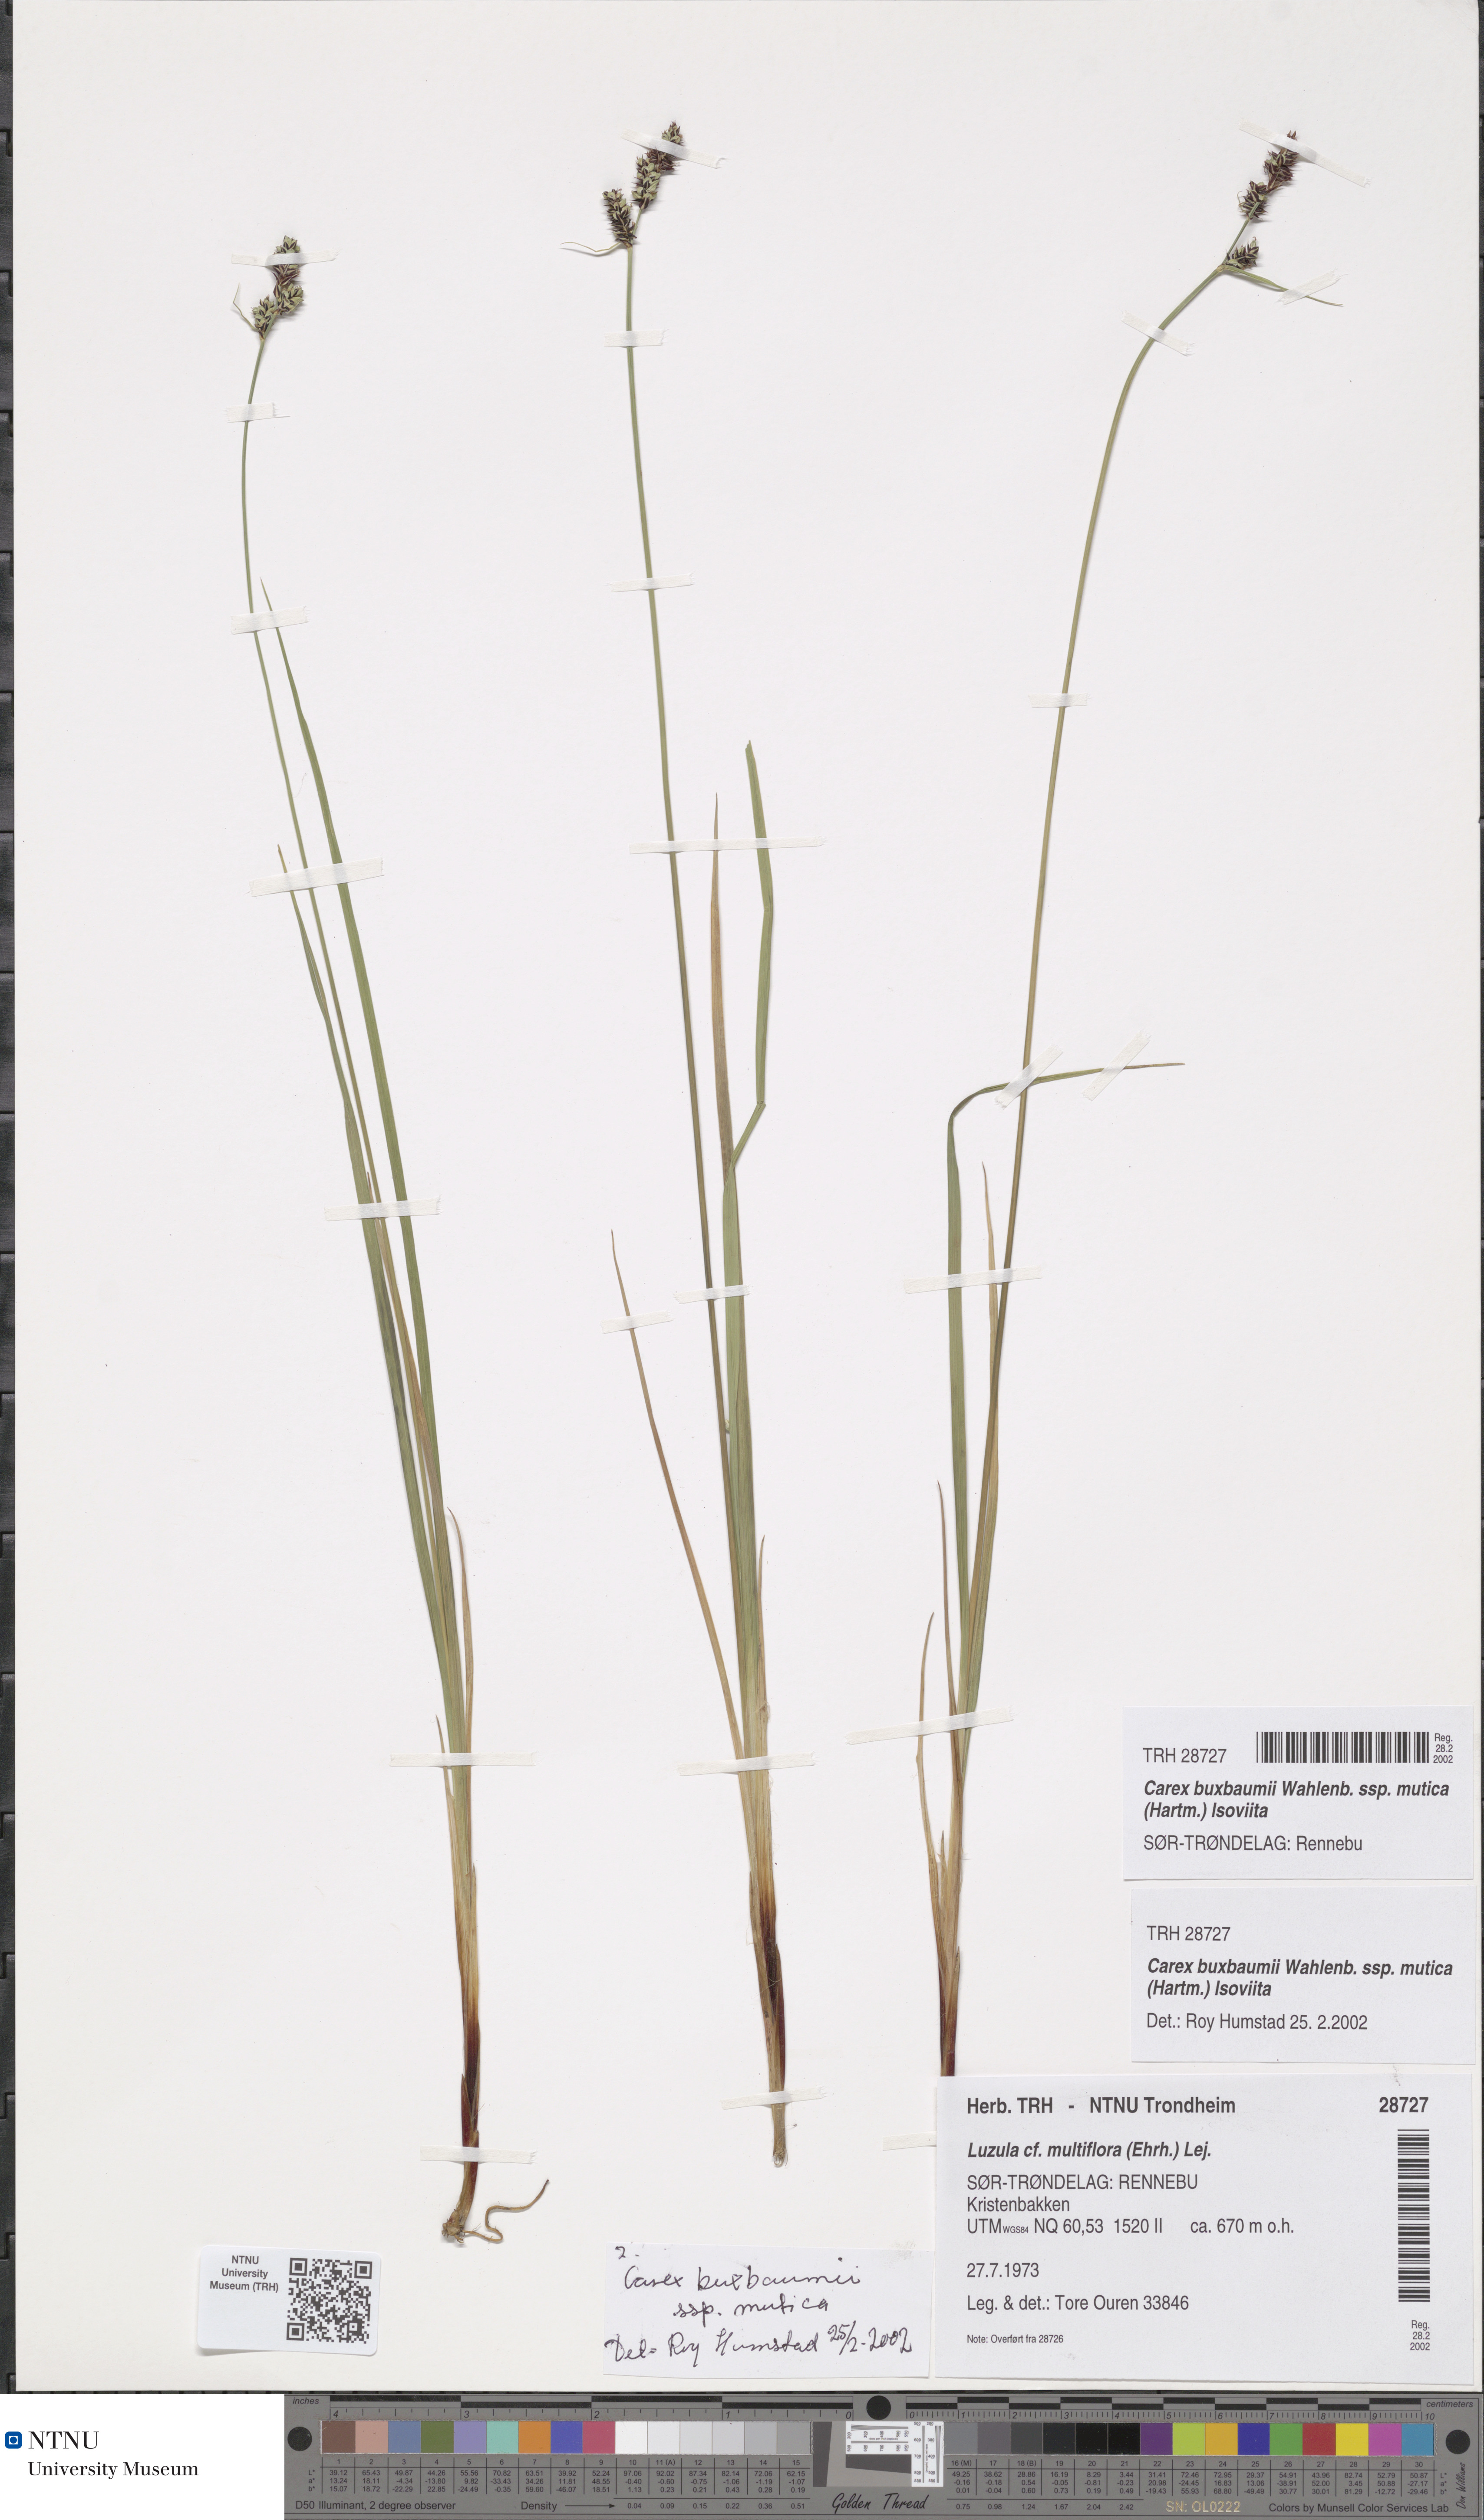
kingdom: Plantae
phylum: Tracheophyta
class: Liliopsida
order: Poales
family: Cyperaceae
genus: Carex
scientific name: Carex adelostoma
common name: Circumpolar sedge
